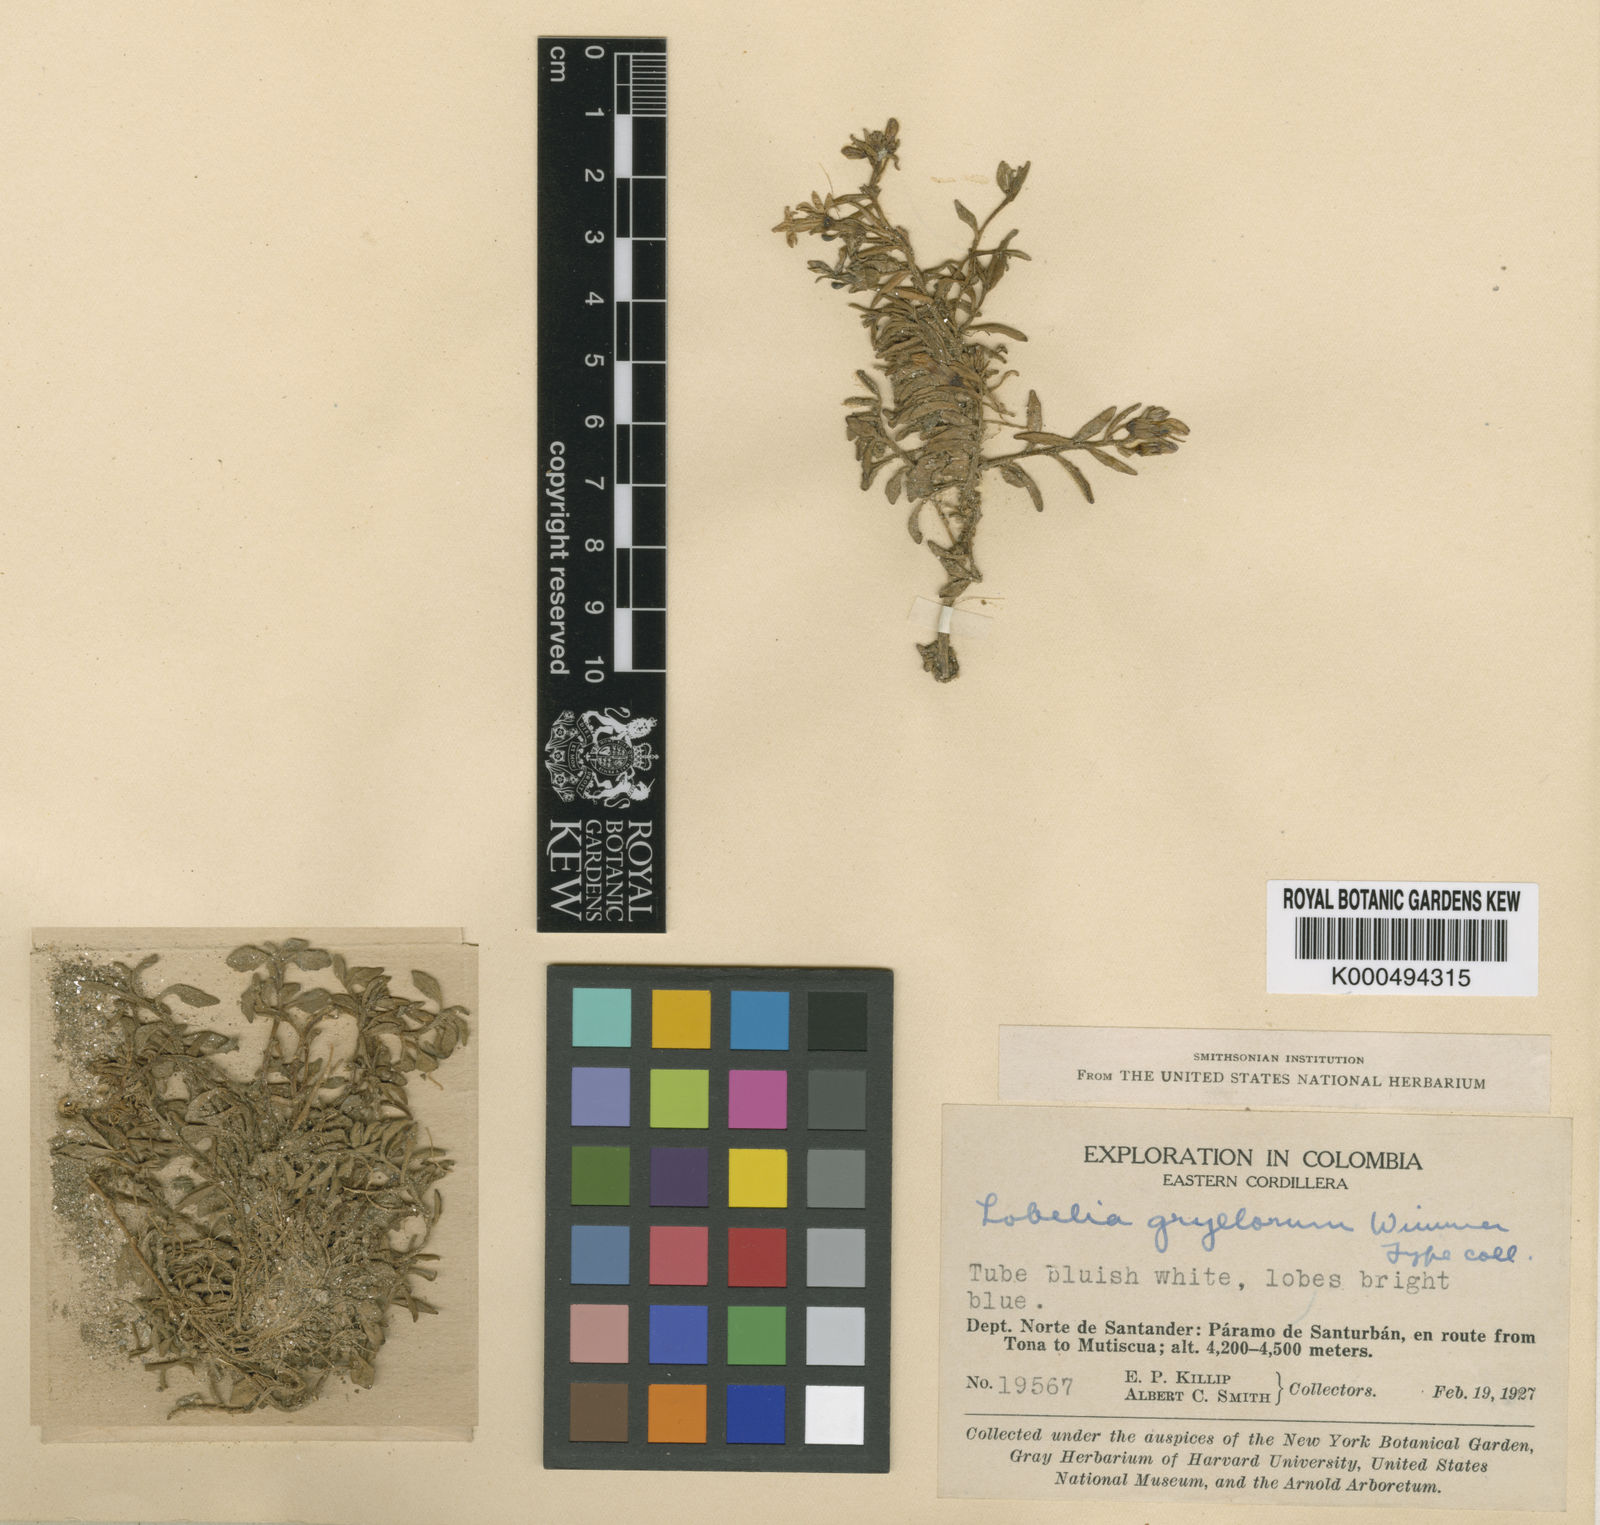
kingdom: Plantae
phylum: Tracheophyta
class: Magnoliopsida
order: Asterales
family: Campanulaceae
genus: Lobelia
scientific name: Lobelia modesta
